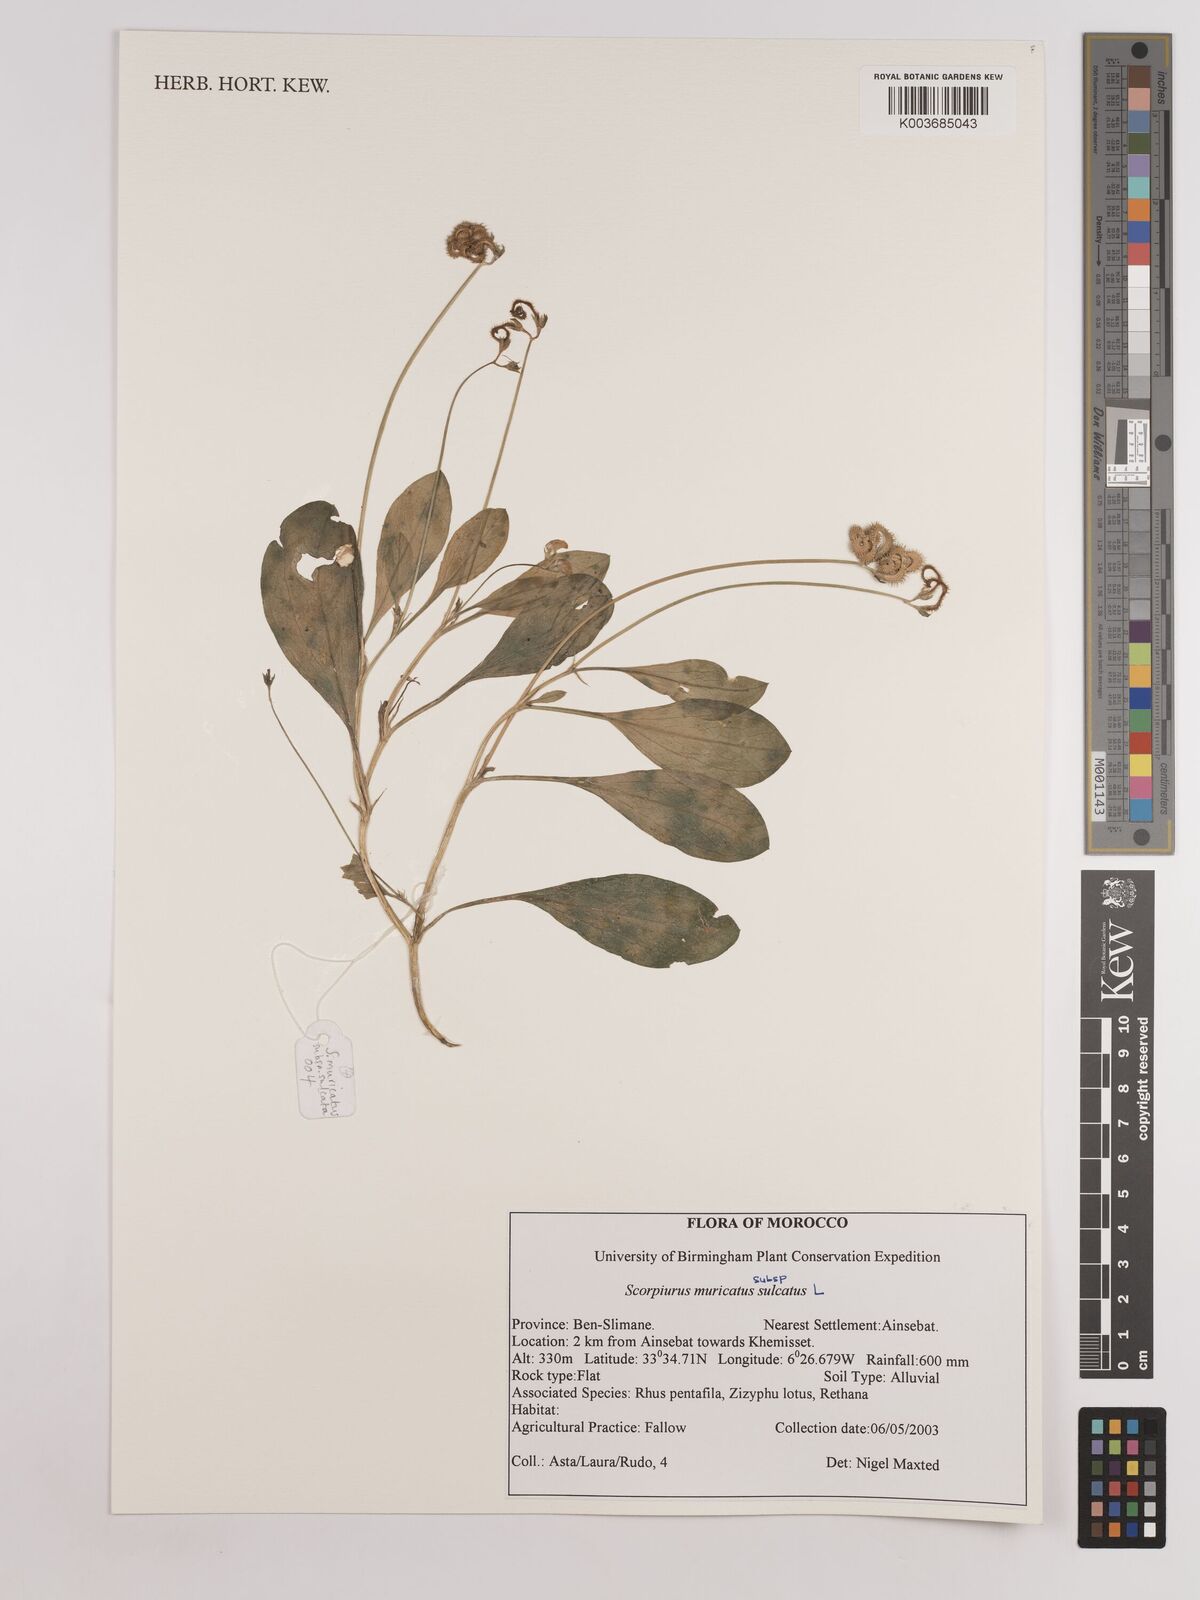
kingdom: Plantae
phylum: Tracheophyta
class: Magnoliopsida
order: Fabales
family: Fabaceae
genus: Scorpiurus
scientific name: Scorpiurus muricatus
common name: Caterpillar-plant
